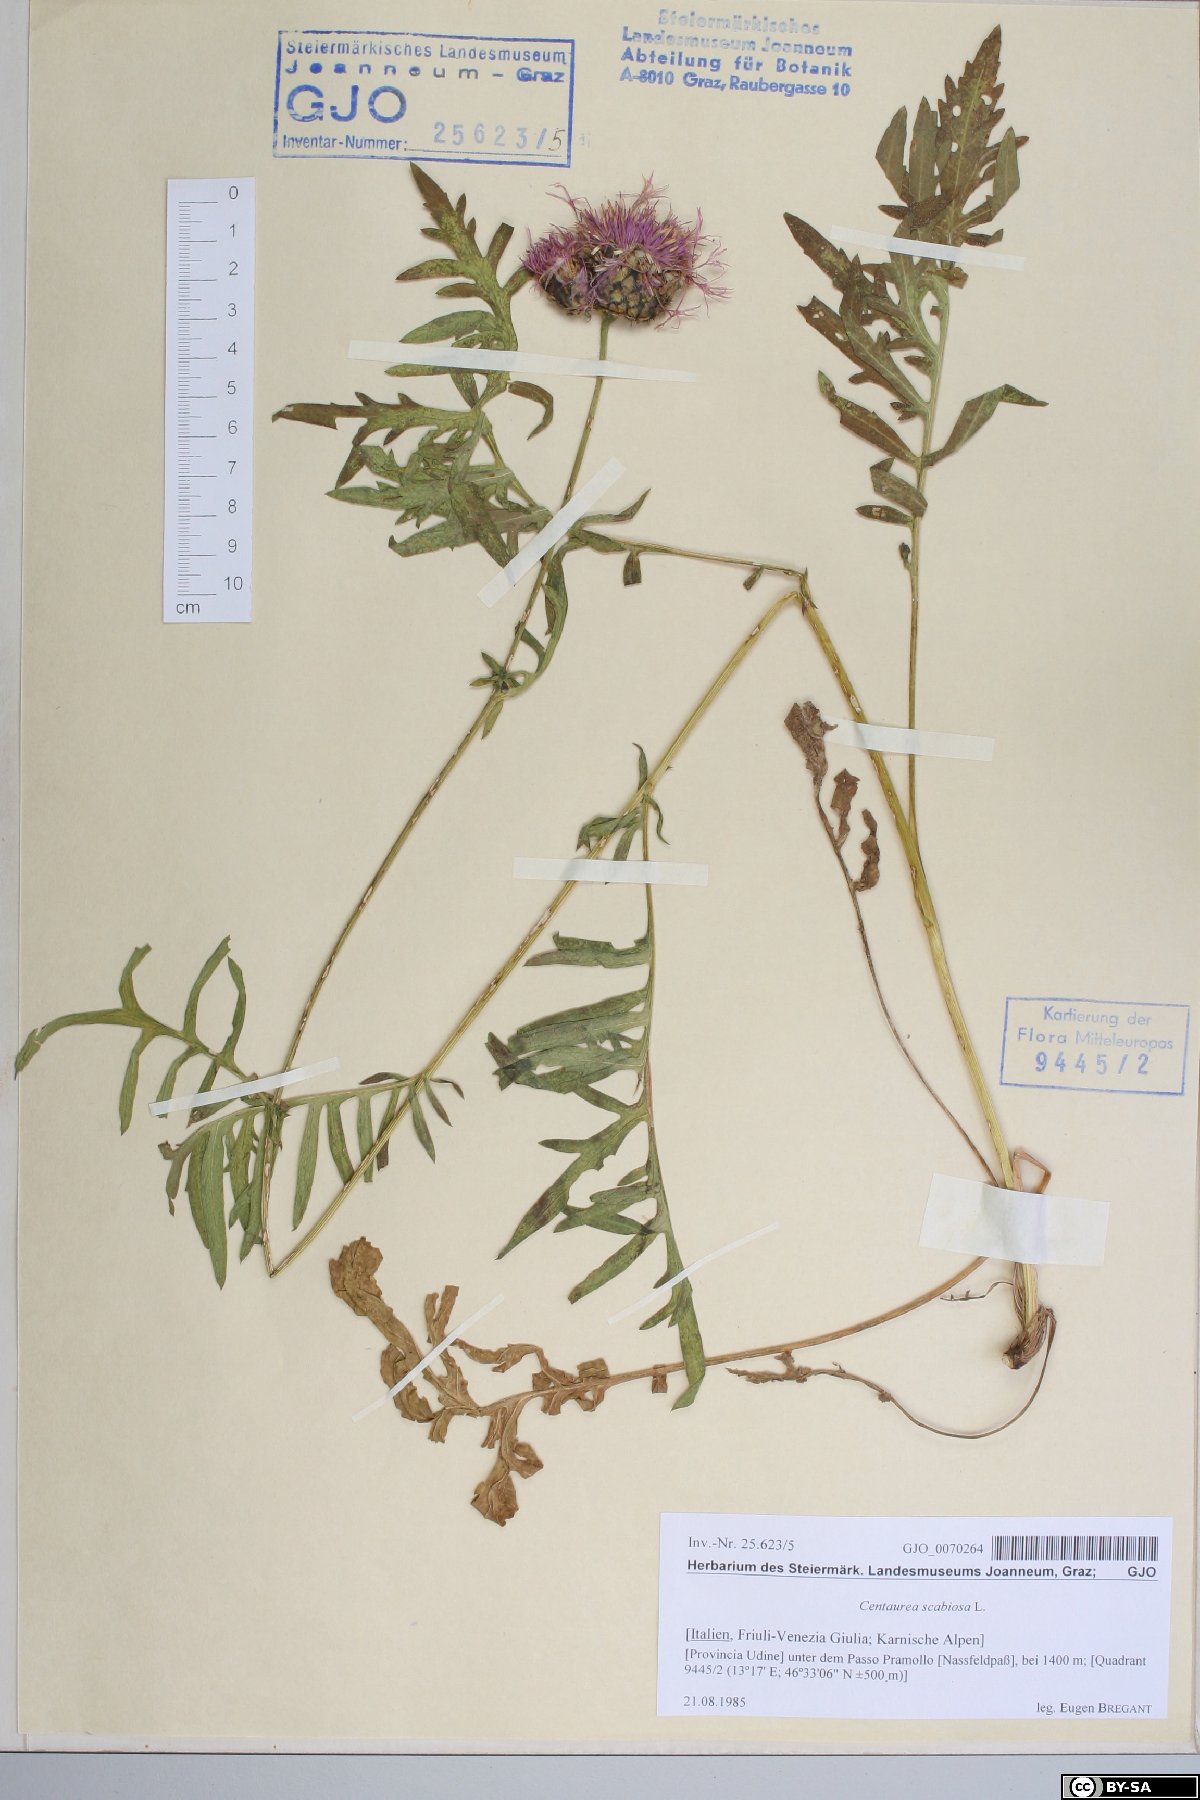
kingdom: Plantae
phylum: Tracheophyta
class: Magnoliopsida
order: Asterales
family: Asteraceae
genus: Centaurea
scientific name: Centaurea scabiosa
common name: Greater knapweed
